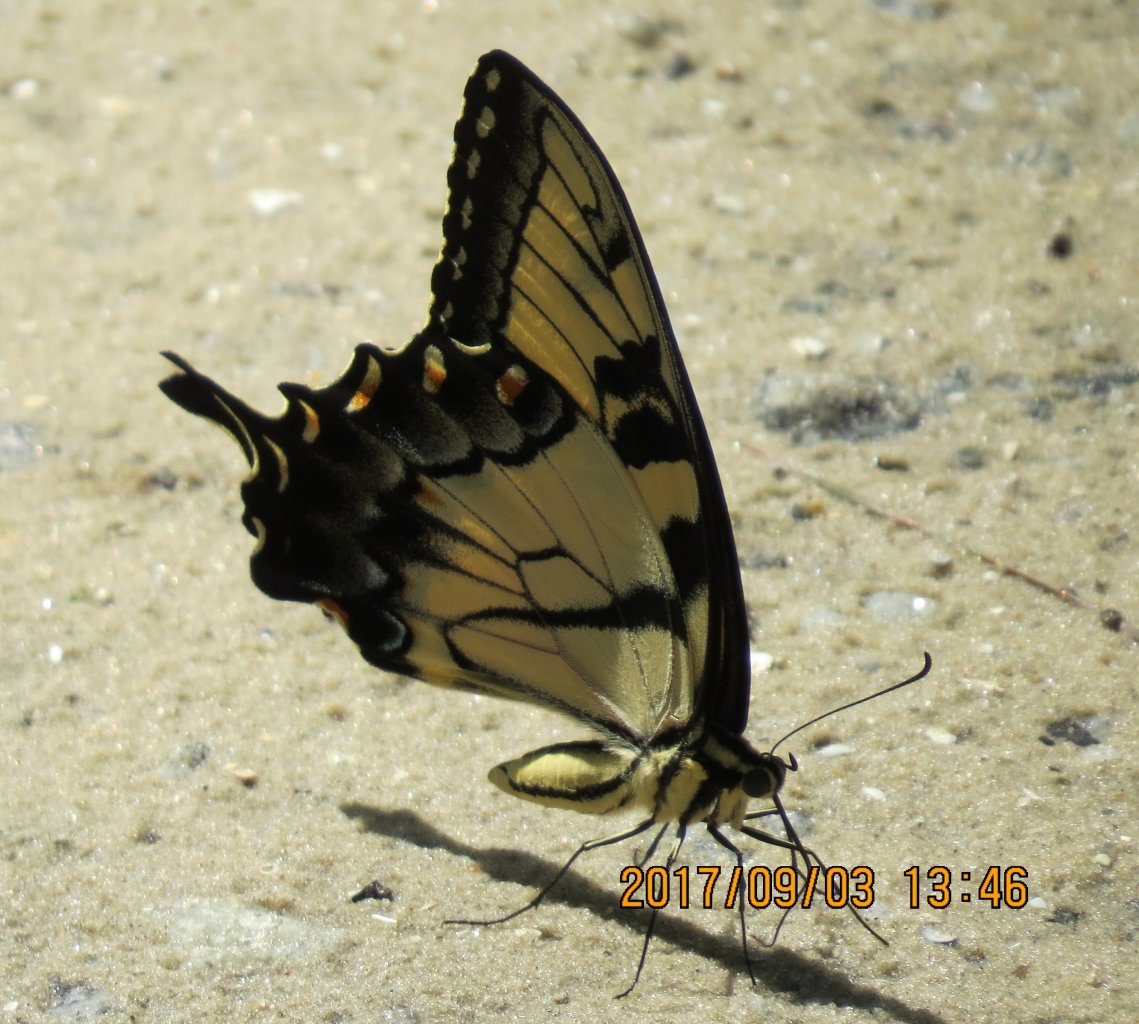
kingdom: Animalia
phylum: Arthropoda
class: Insecta
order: Lepidoptera
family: Papilionidae
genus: Pterourus
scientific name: Pterourus glaucus
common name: Eastern Tiger Swallowtail
